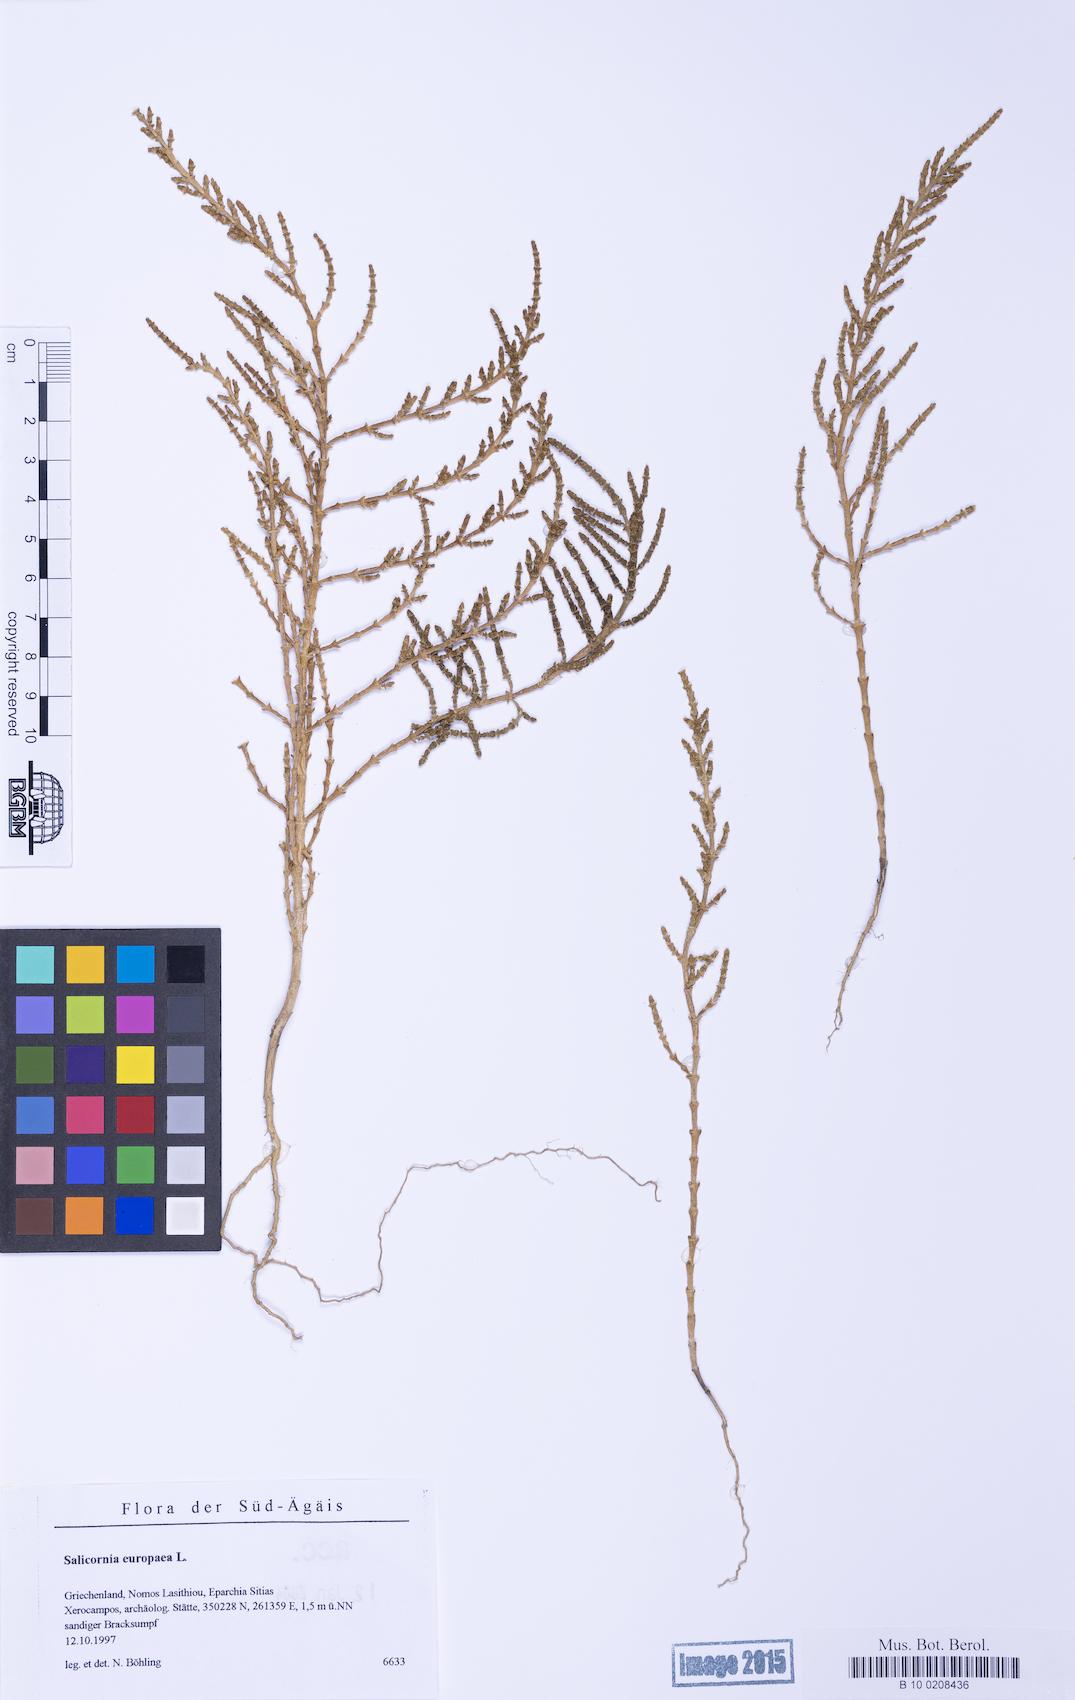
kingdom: Plantae
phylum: Tracheophyta
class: Magnoliopsida
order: Caryophyllales
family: Amaranthaceae
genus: Salicornia
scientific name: Salicornia perennans
